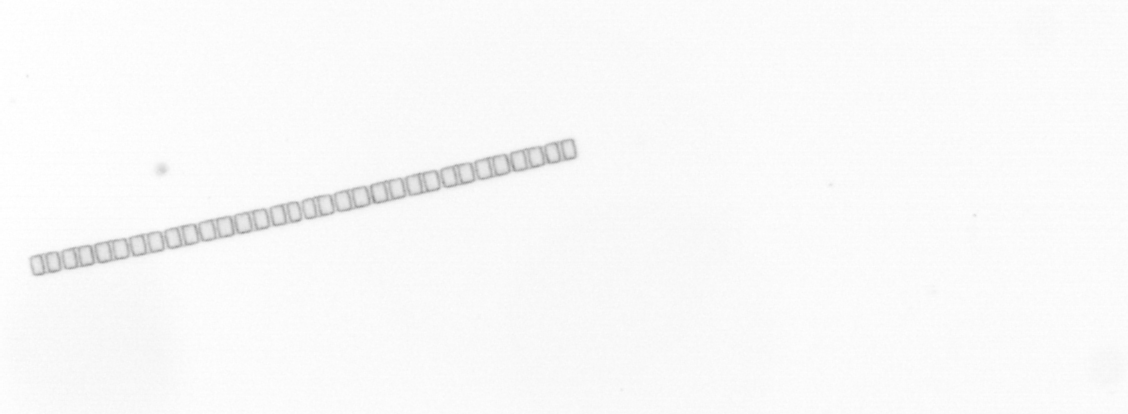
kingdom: Chromista
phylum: Ochrophyta
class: Bacillariophyceae
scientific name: Bacillariophyceae
